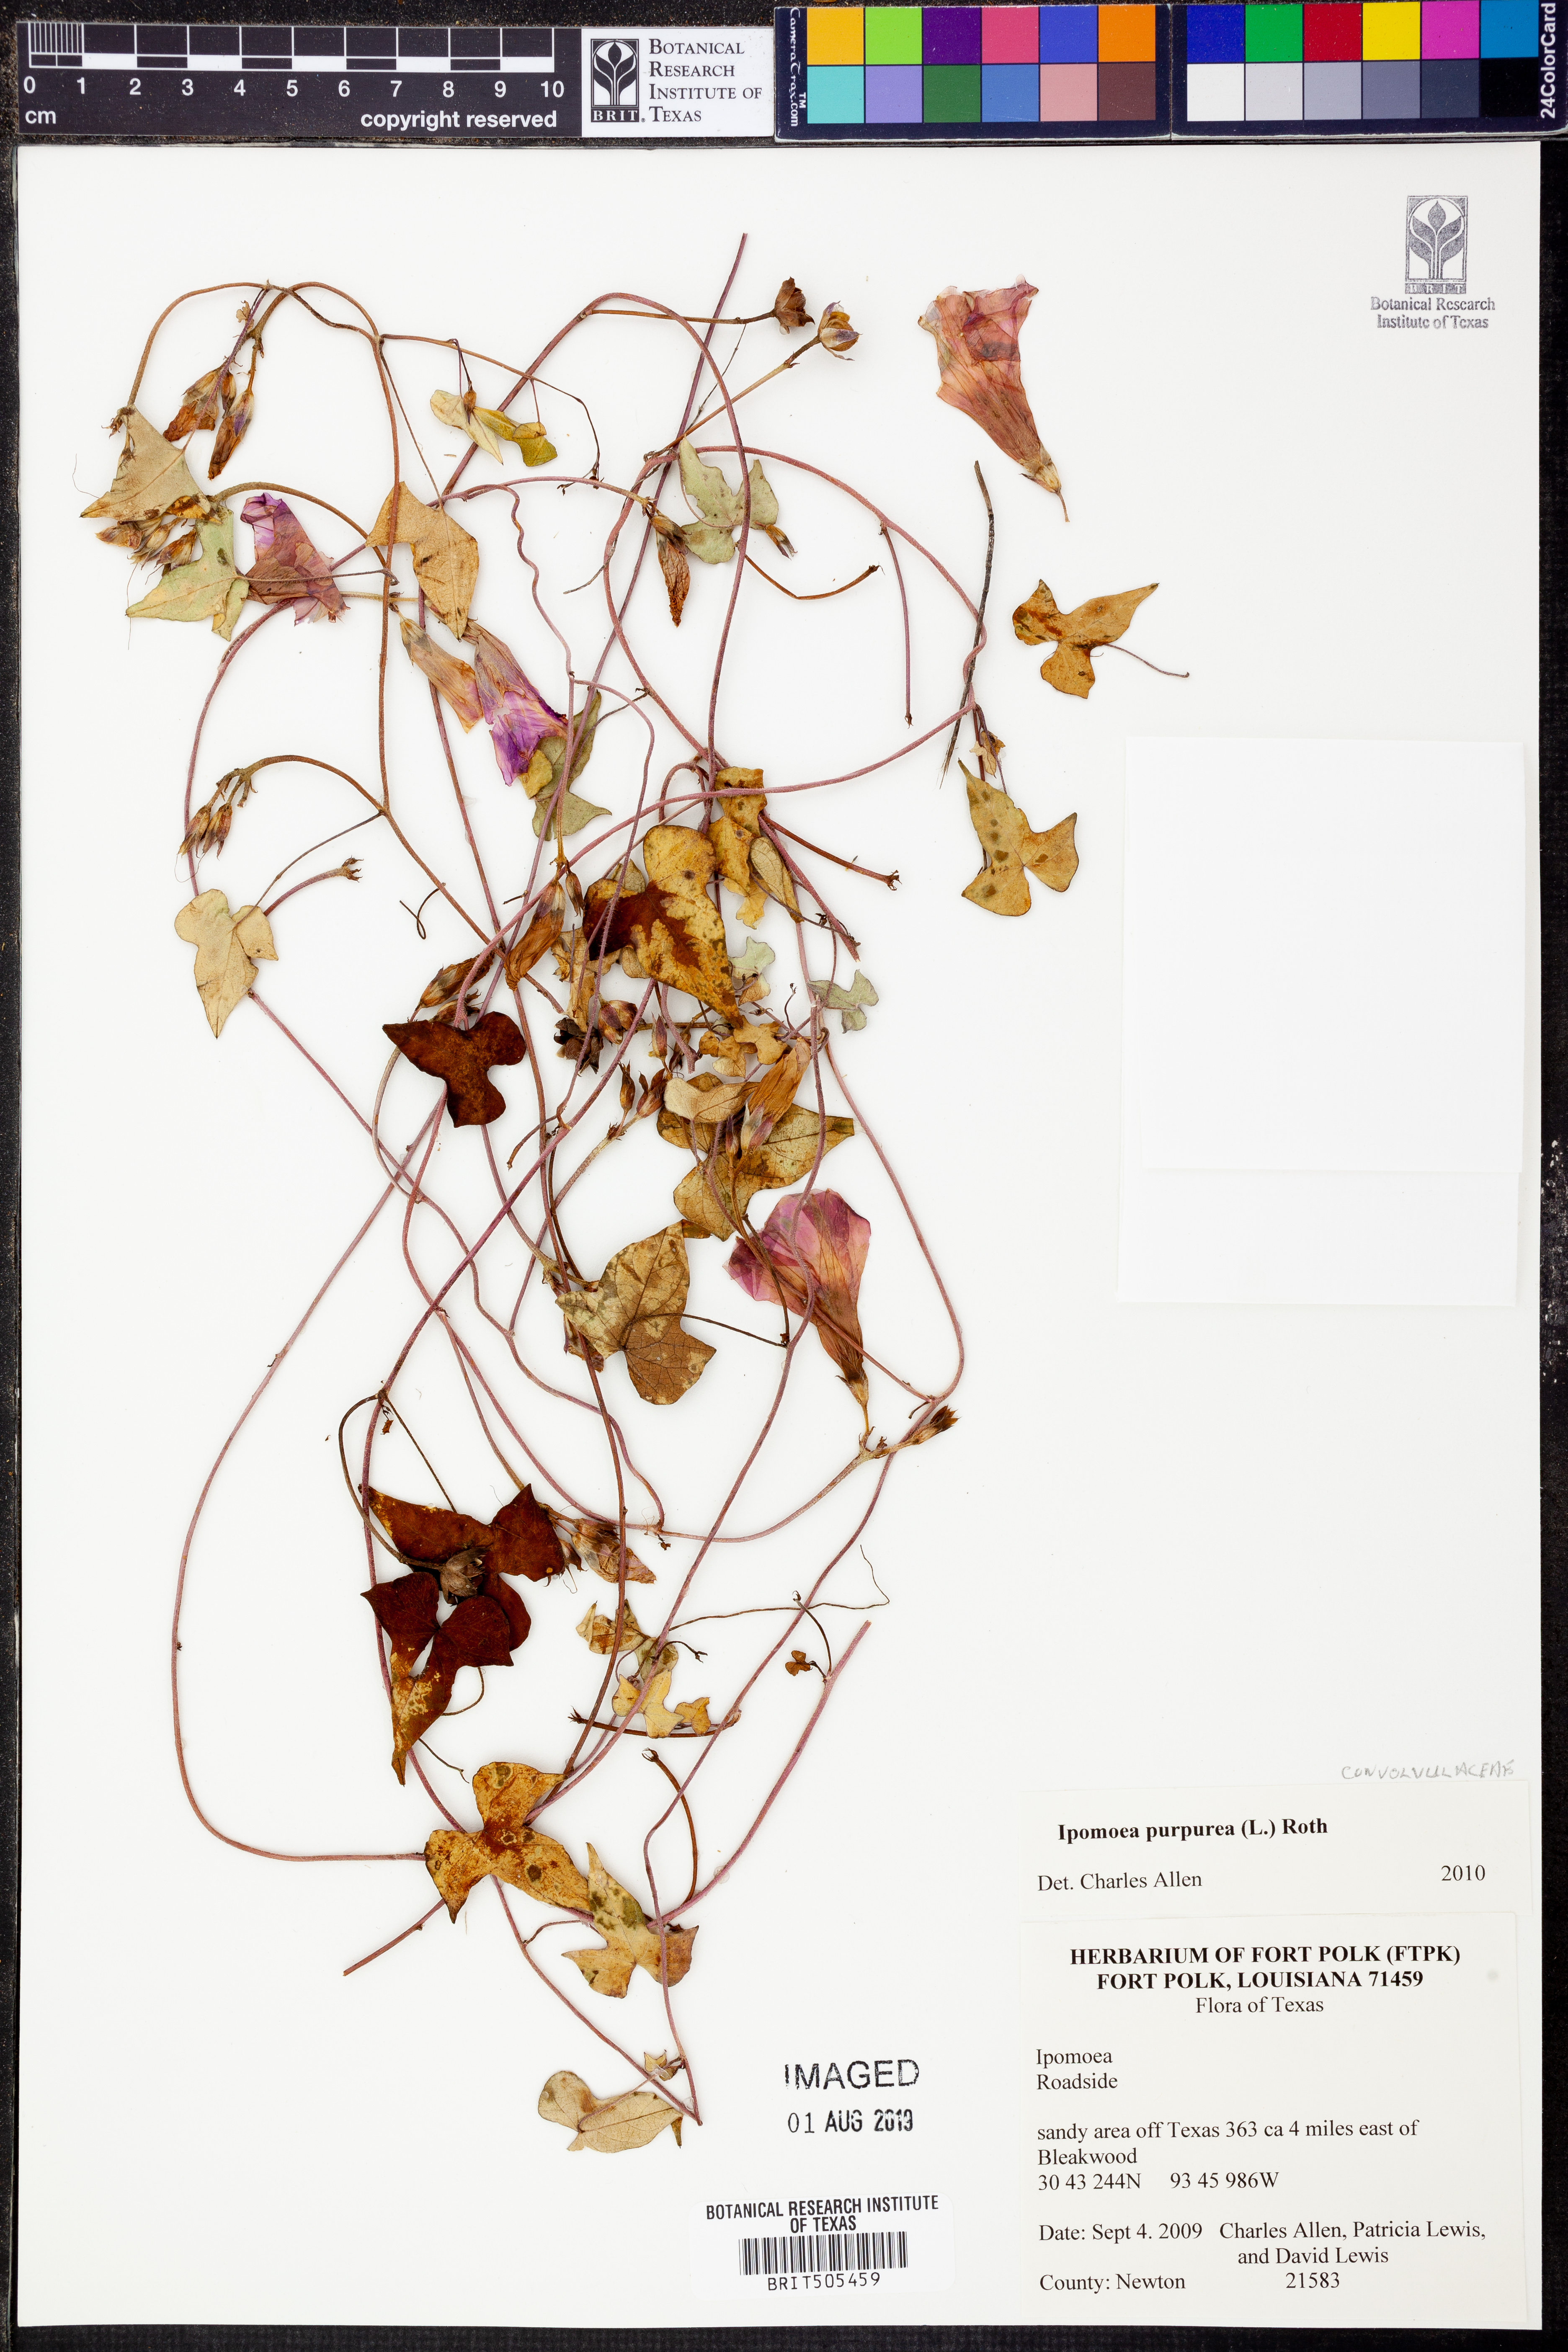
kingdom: Plantae
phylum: Tracheophyta
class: Magnoliopsida
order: Solanales
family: Convolvulaceae
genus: Ipomoea
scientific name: Ipomoea purpurea
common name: Common morning-glory
